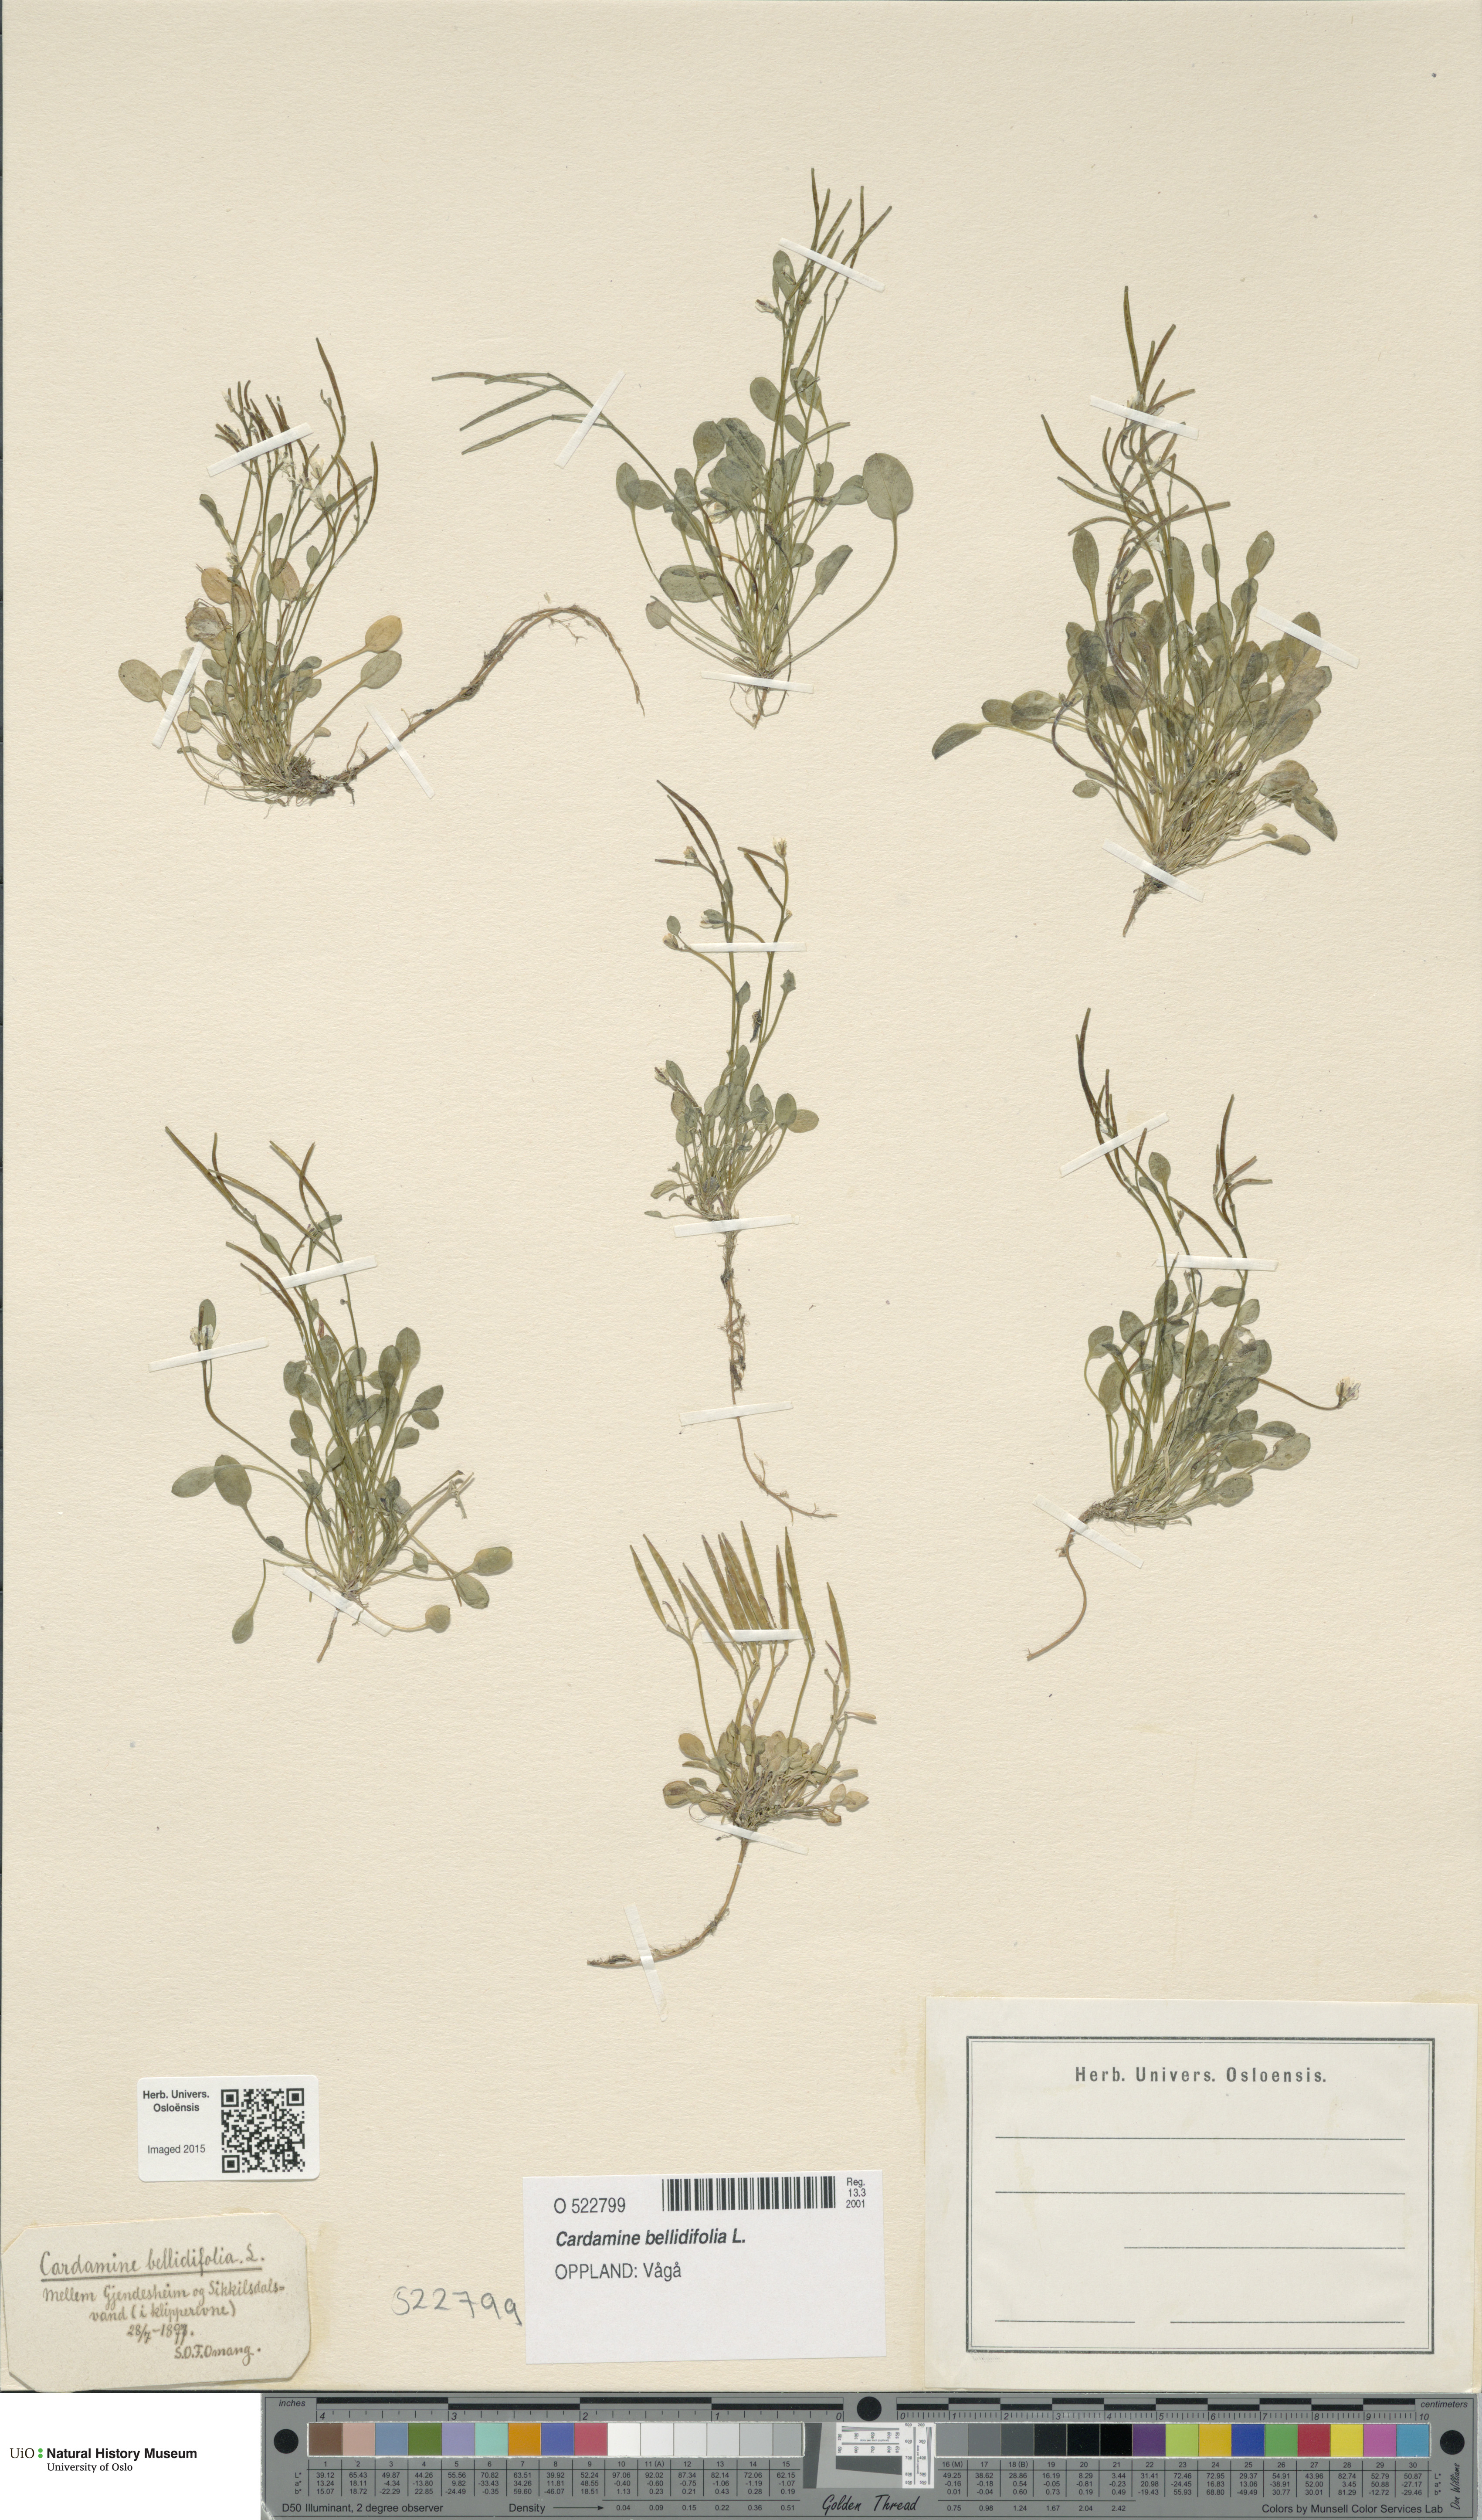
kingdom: Plantae
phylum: Tracheophyta
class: Magnoliopsida
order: Brassicales
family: Brassicaceae
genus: Cardamine
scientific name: Cardamine bellidifolia
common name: Alpine bittercress
